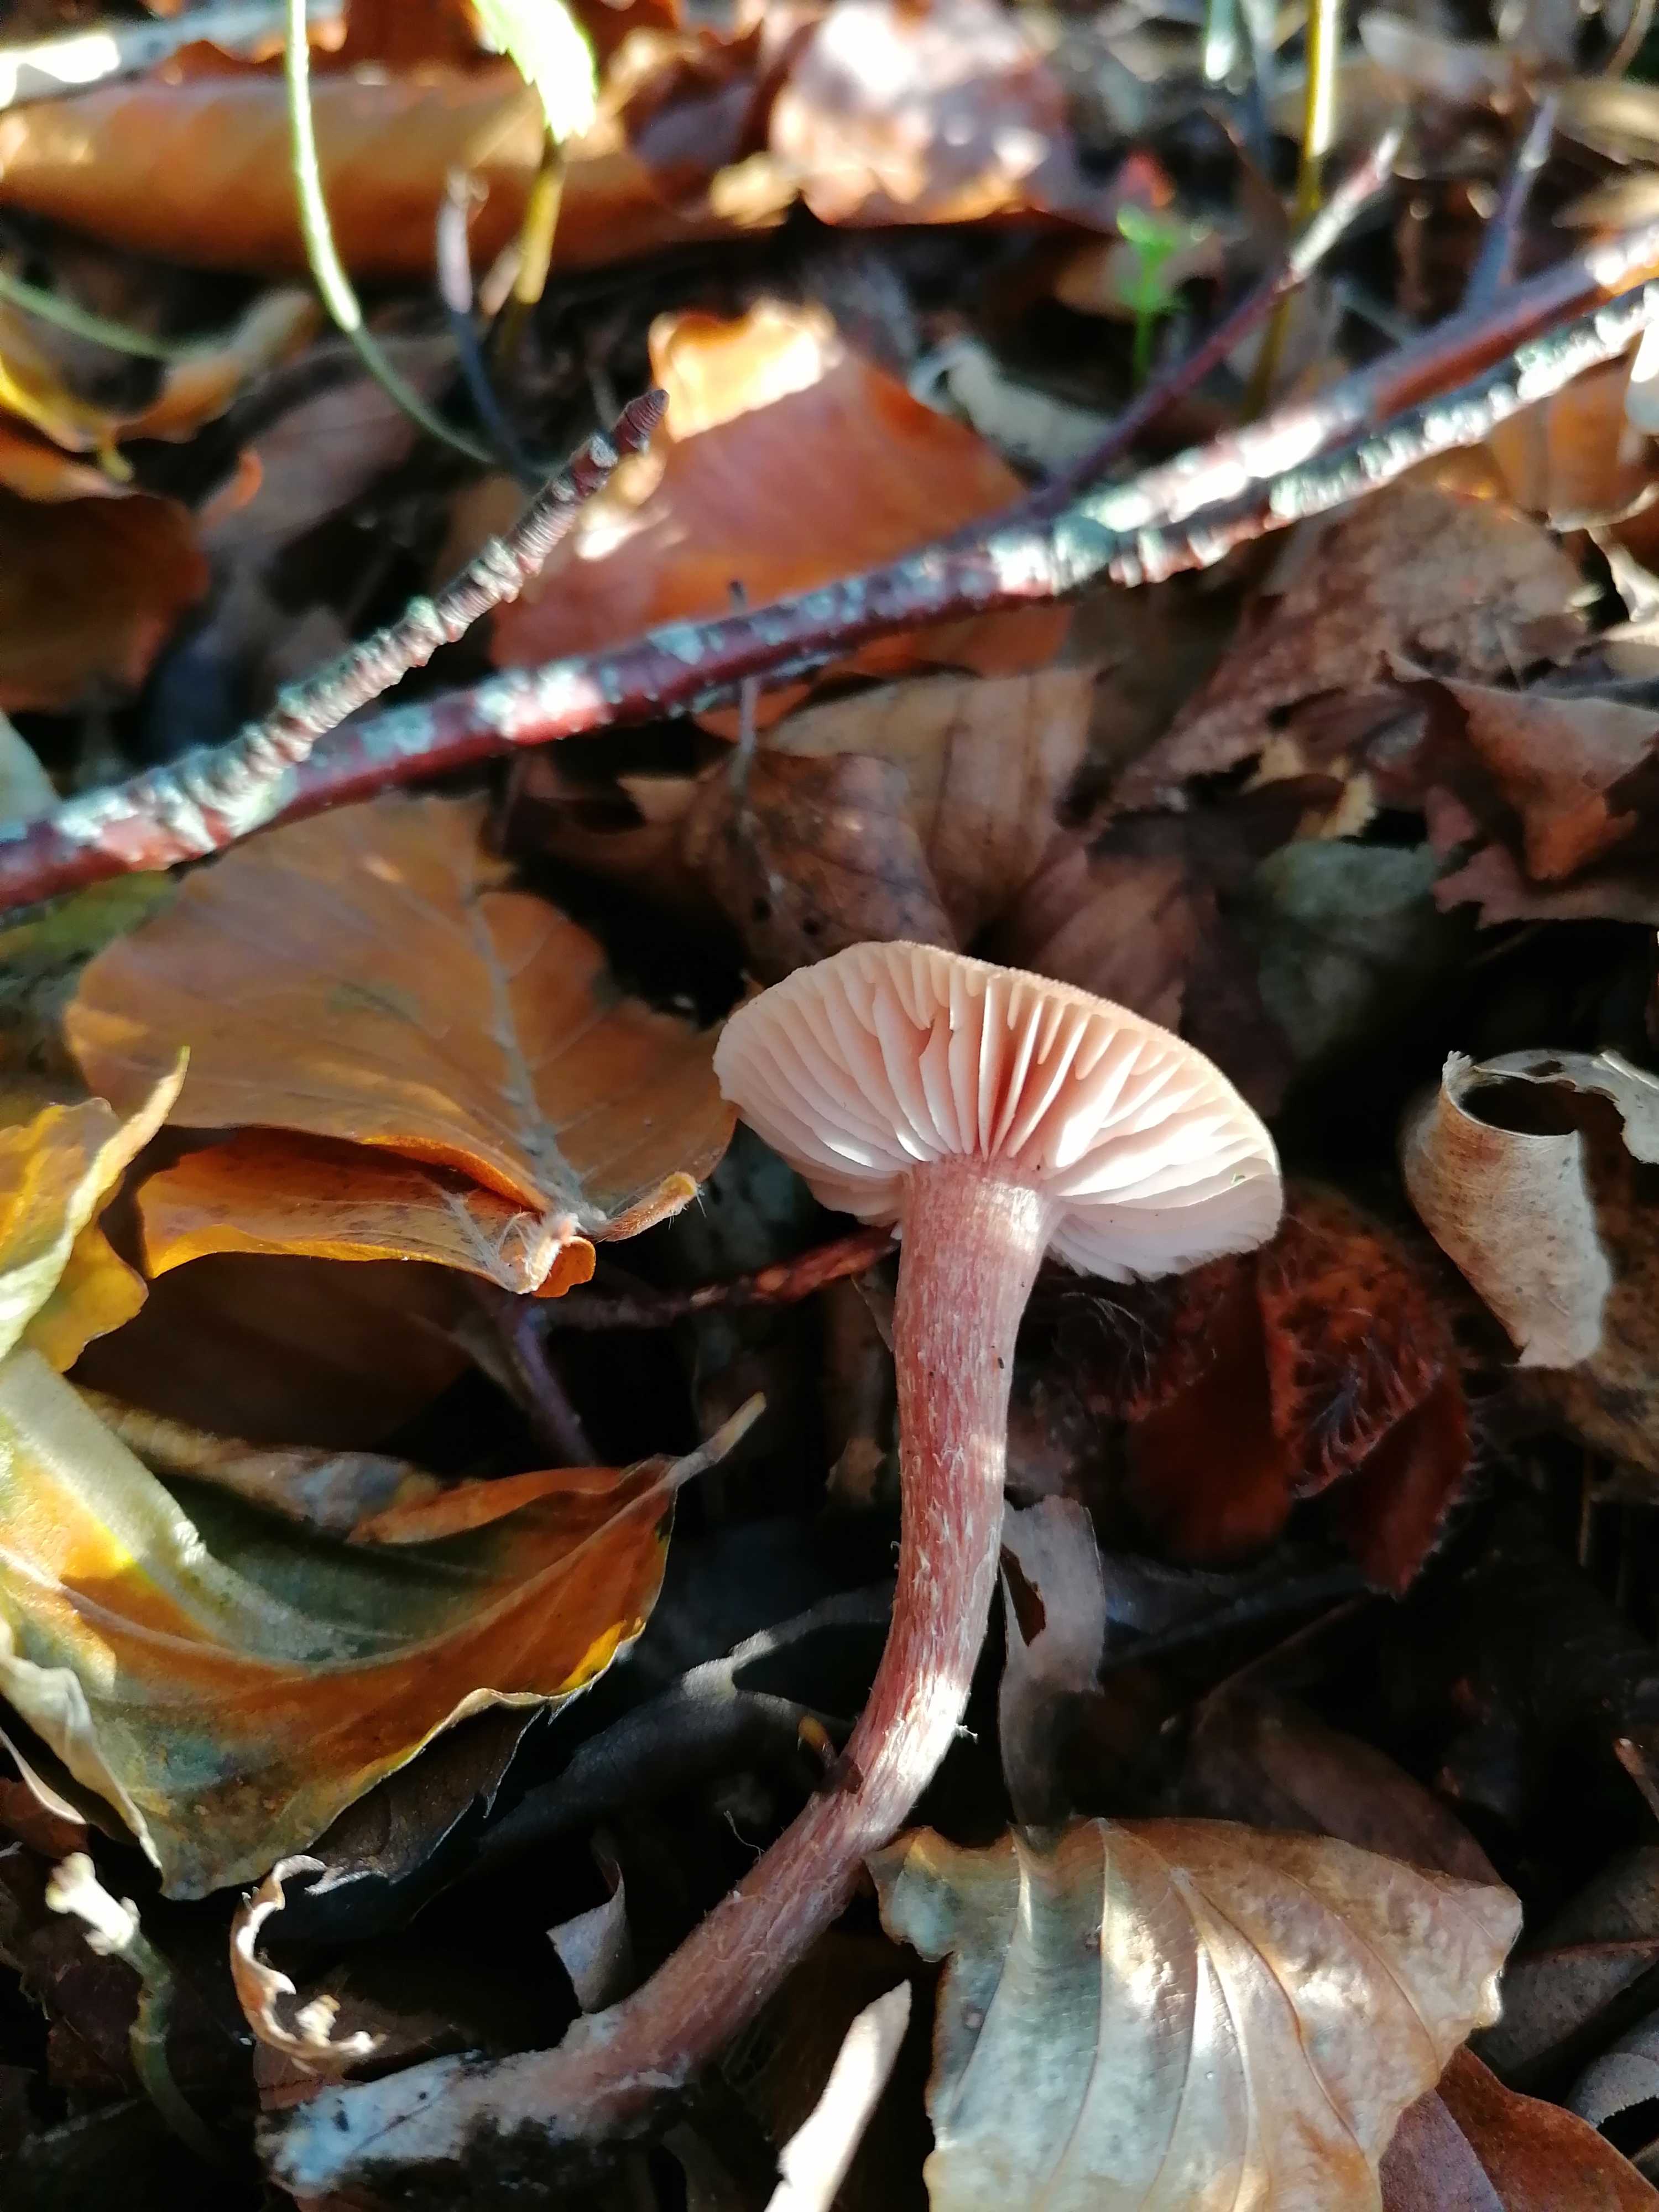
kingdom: Fungi
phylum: Basidiomycota
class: Agaricomycetes
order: Agaricales
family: Hydnangiaceae
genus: Laccaria
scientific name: Laccaria laccata
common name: rød ametysthat
